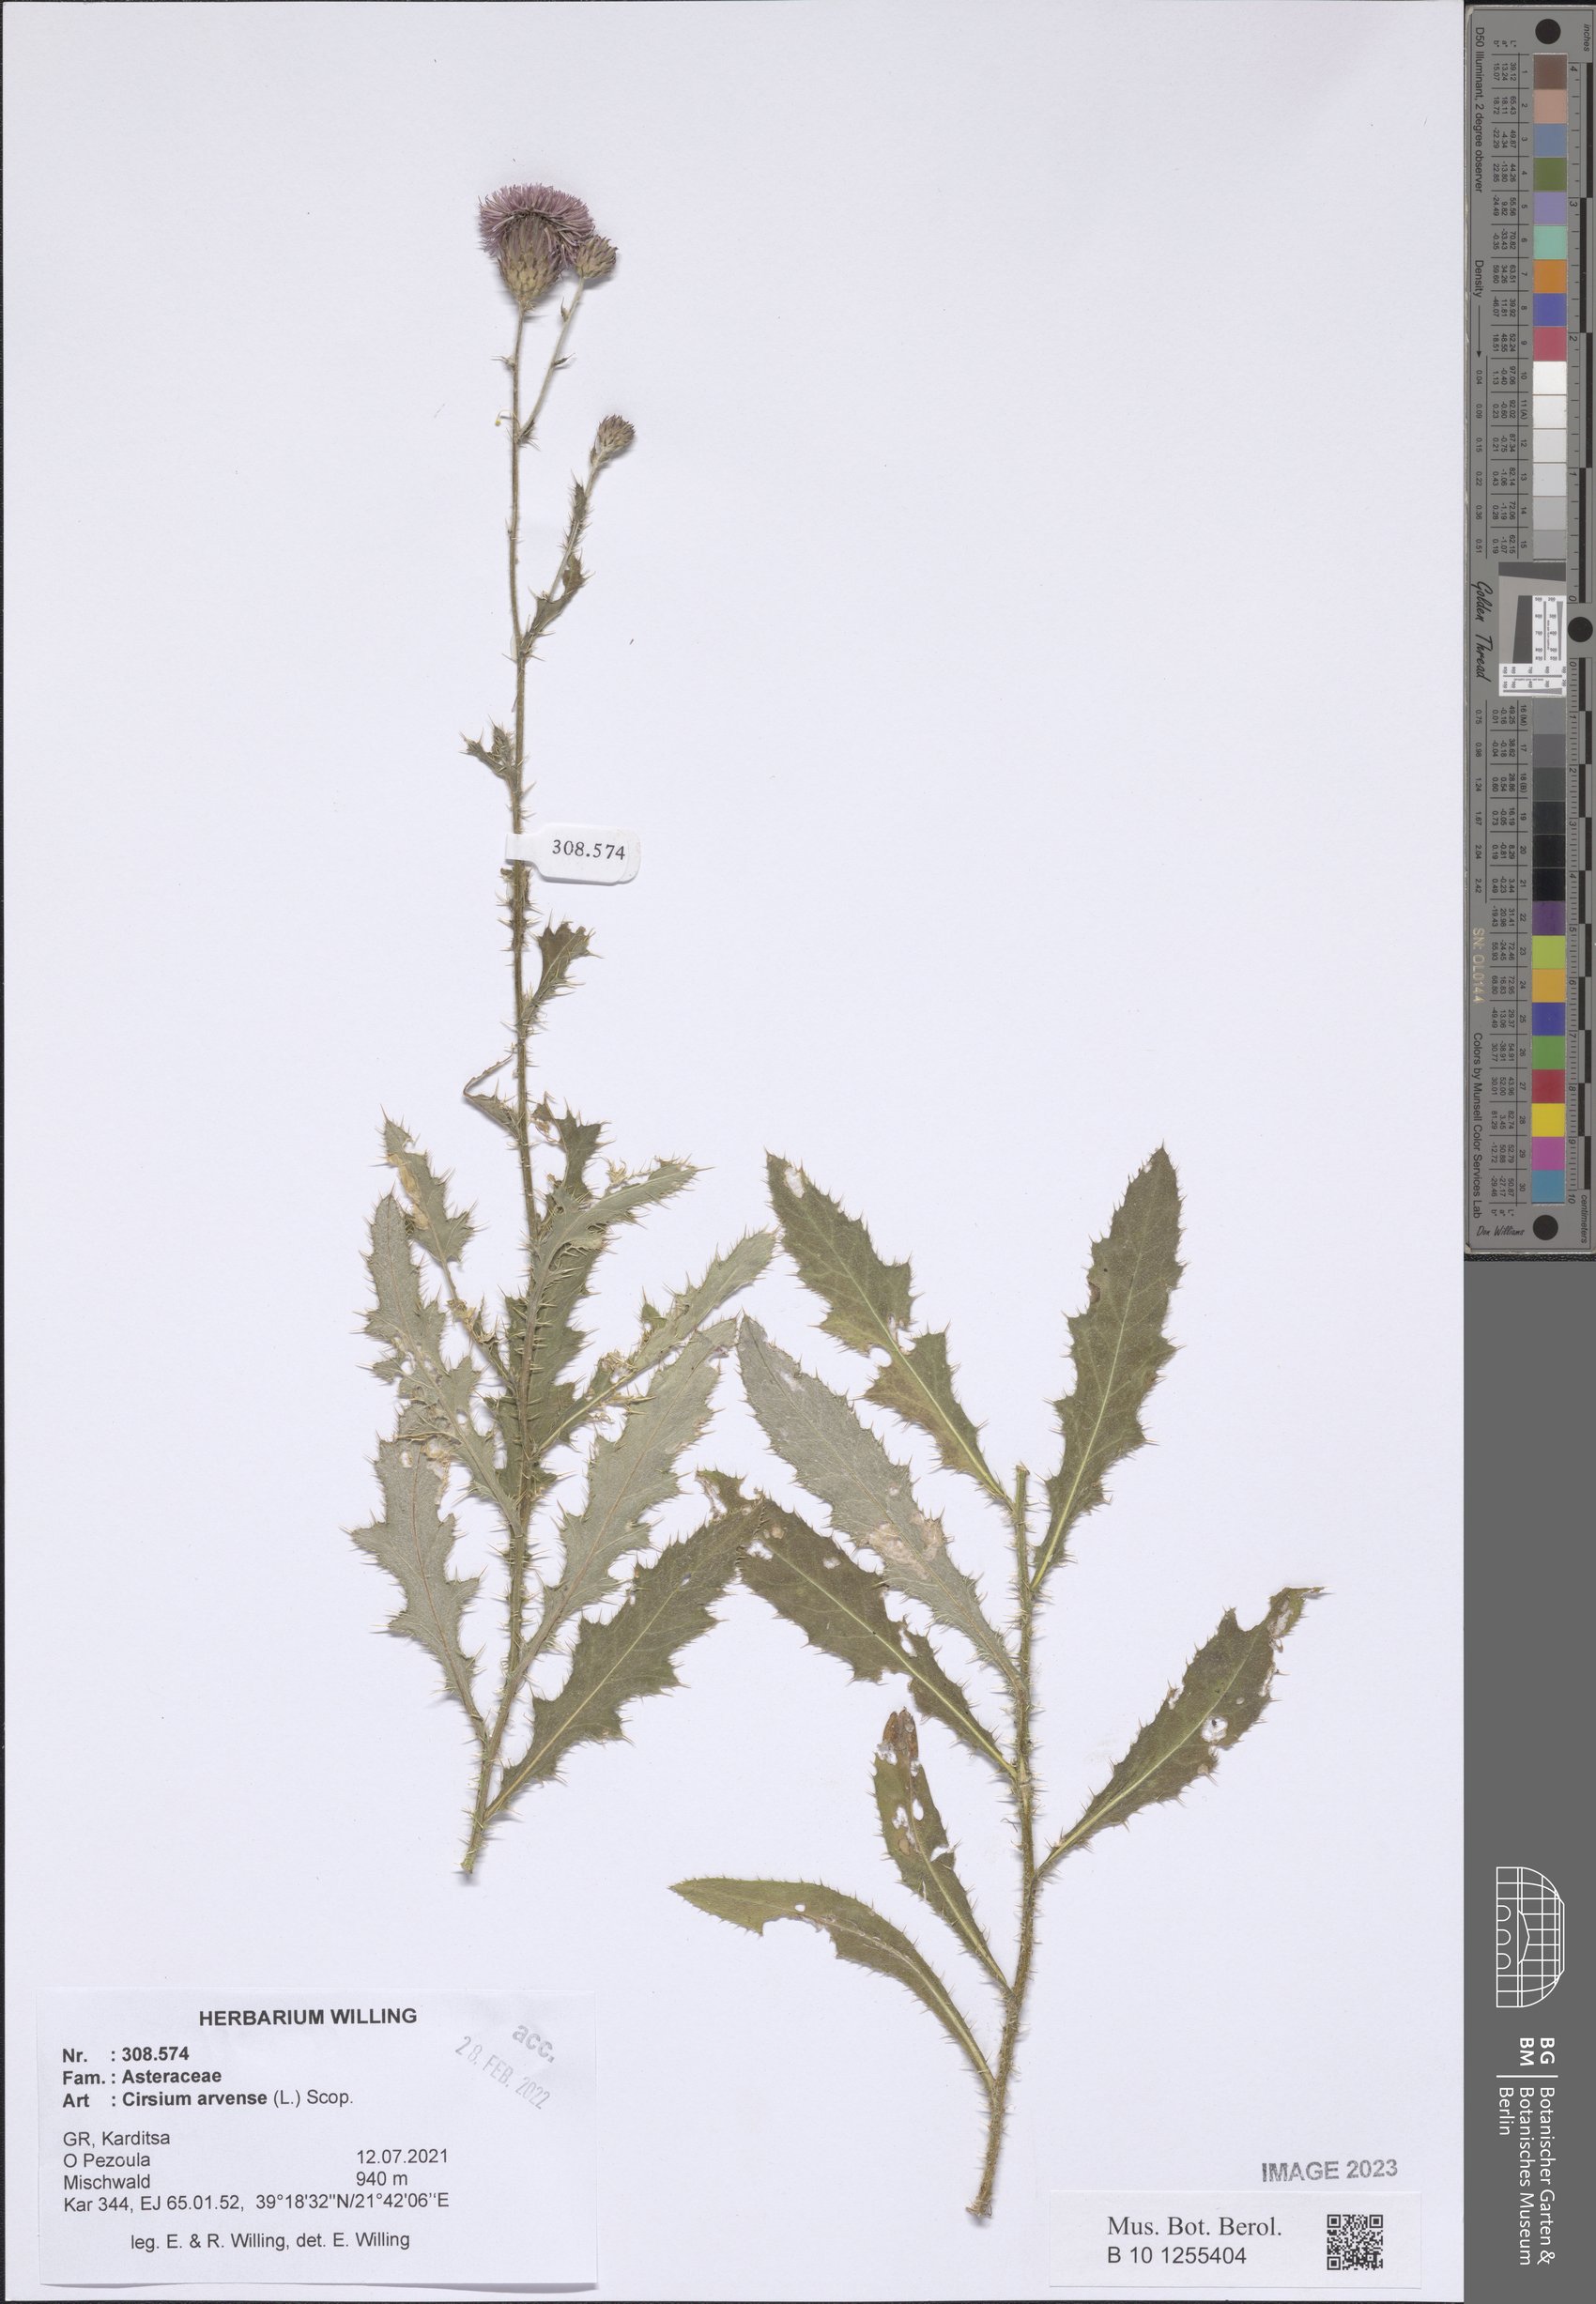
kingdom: Plantae
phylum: Tracheophyta
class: Magnoliopsida
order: Asterales
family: Asteraceae
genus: Cirsium
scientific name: Cirsium arvense
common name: Creeping thistle
